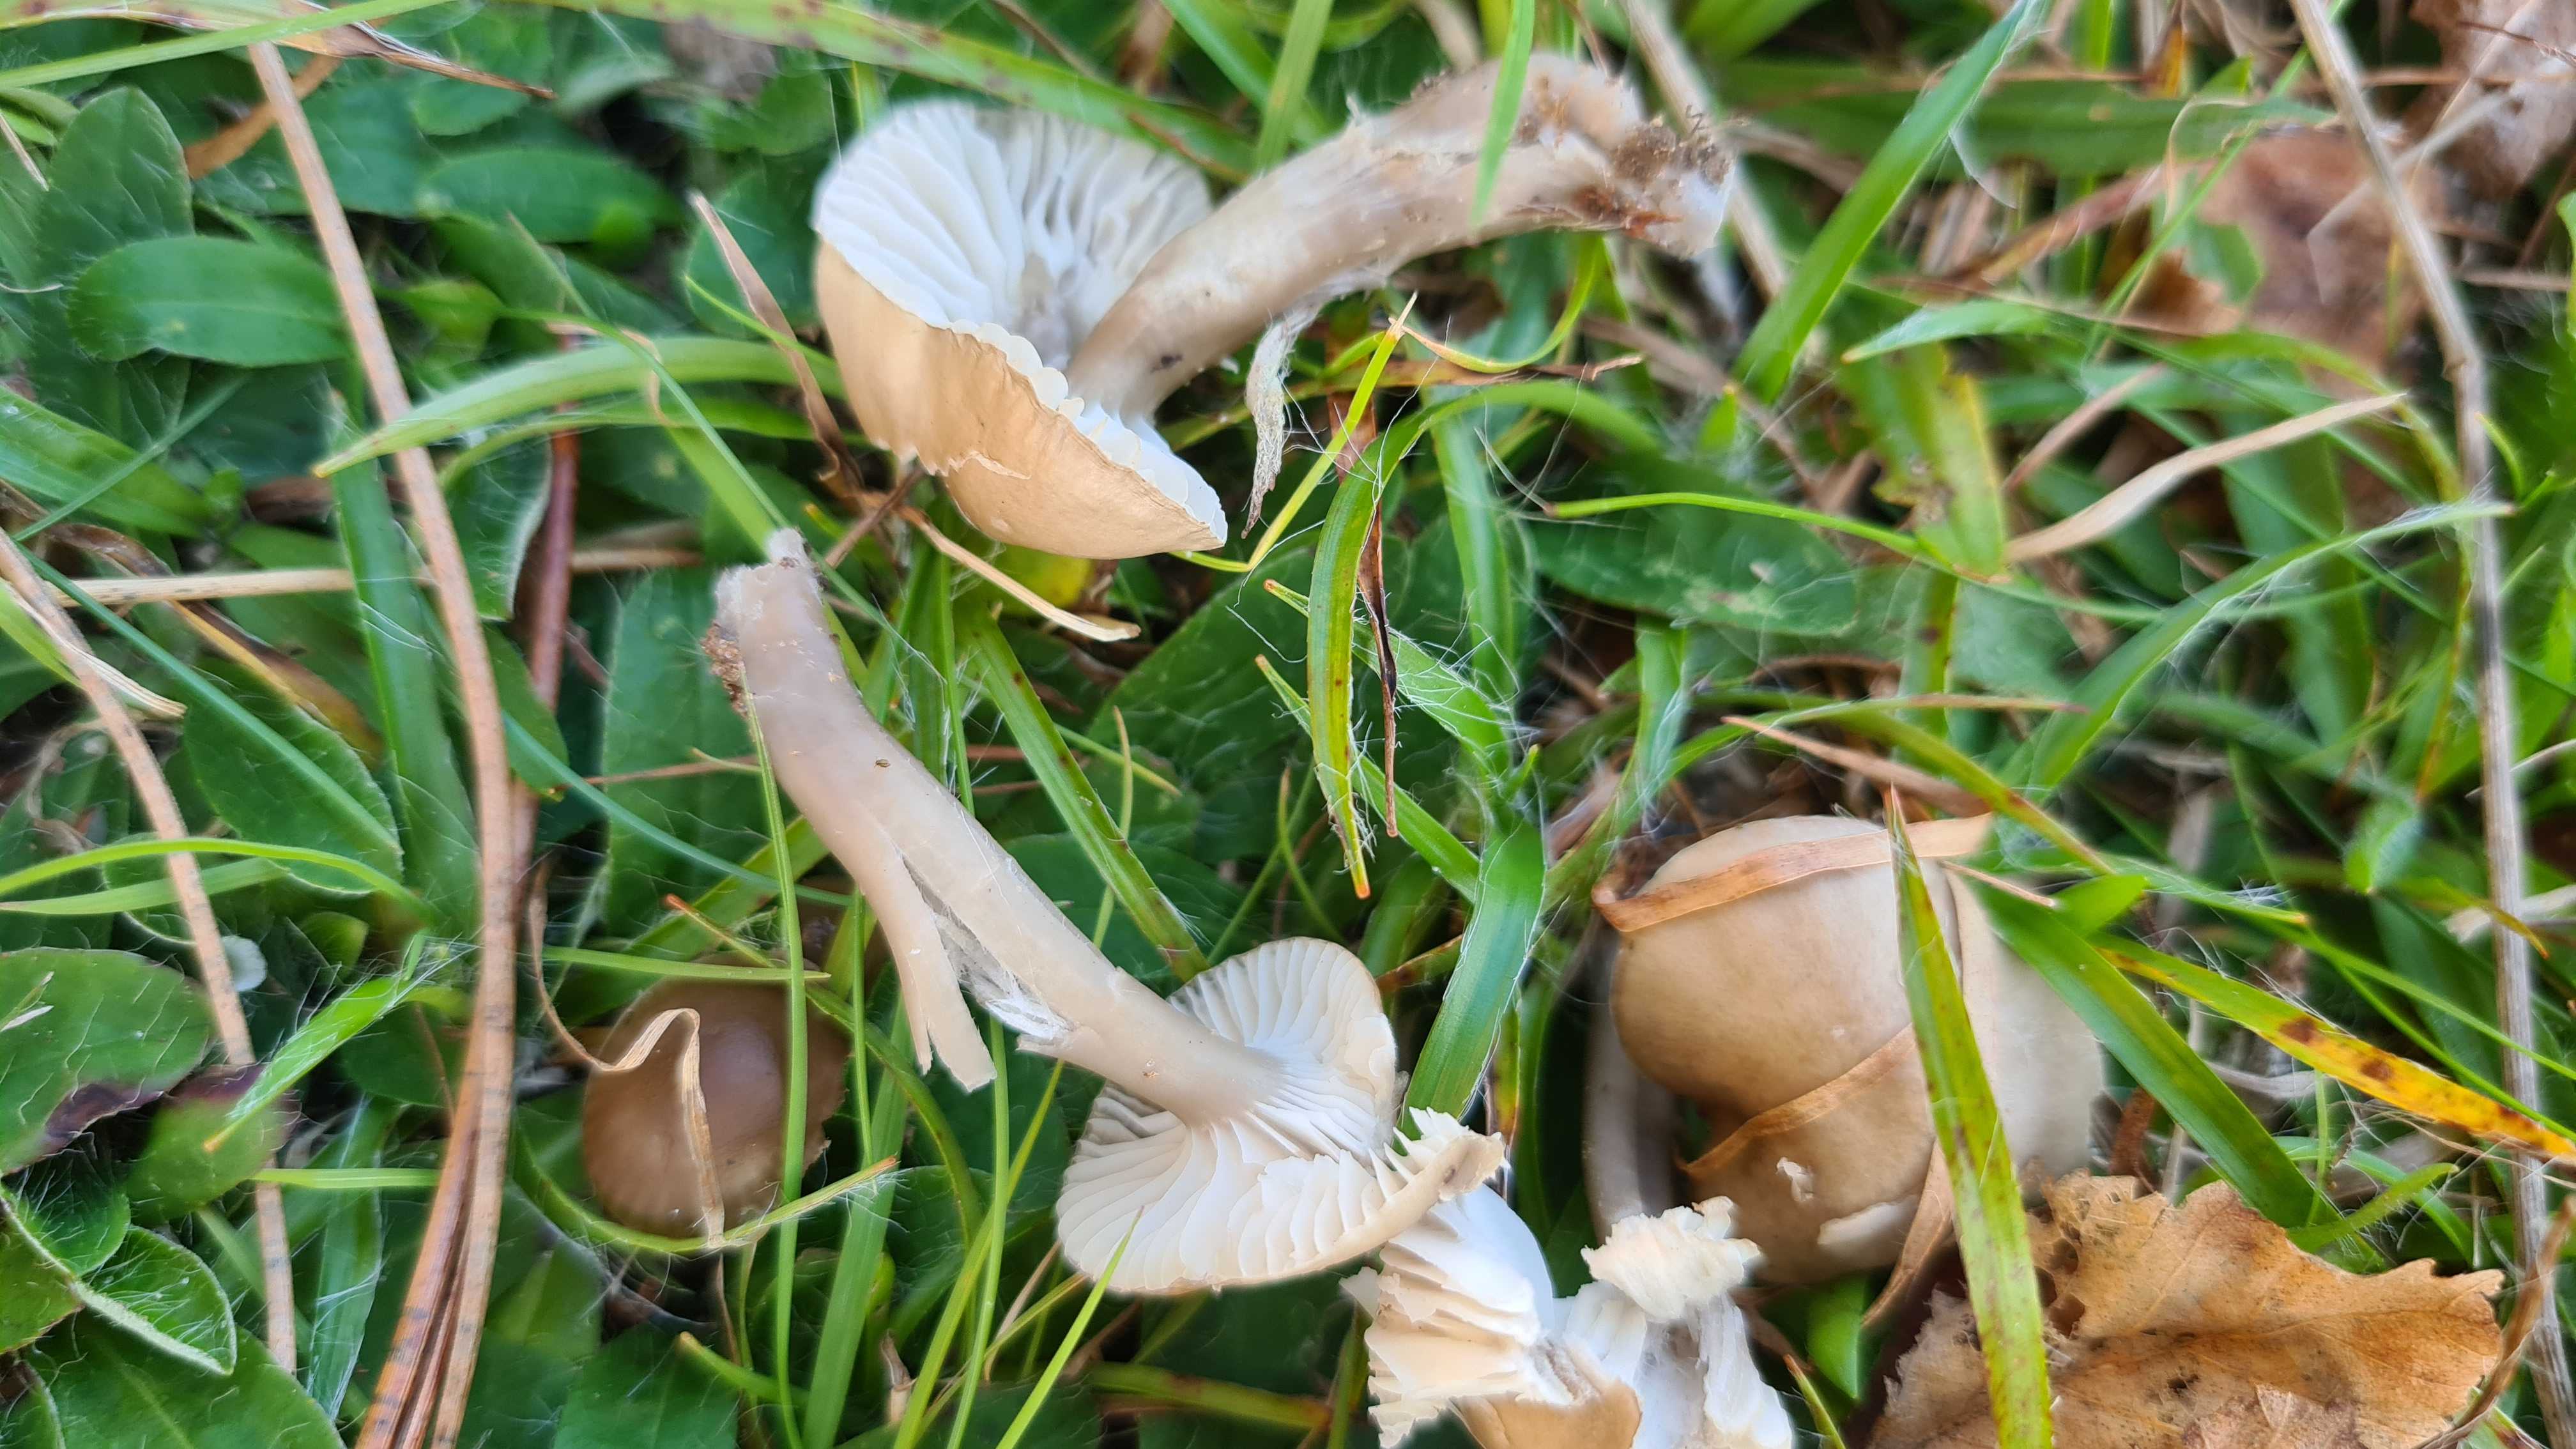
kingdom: Fungi
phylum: Basidiomycota
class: Agaricomycetes
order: Agaricales
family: Hygrophoraceae
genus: Gliophorus
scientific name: Gliophorus irrigatus
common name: slimet vokshat
